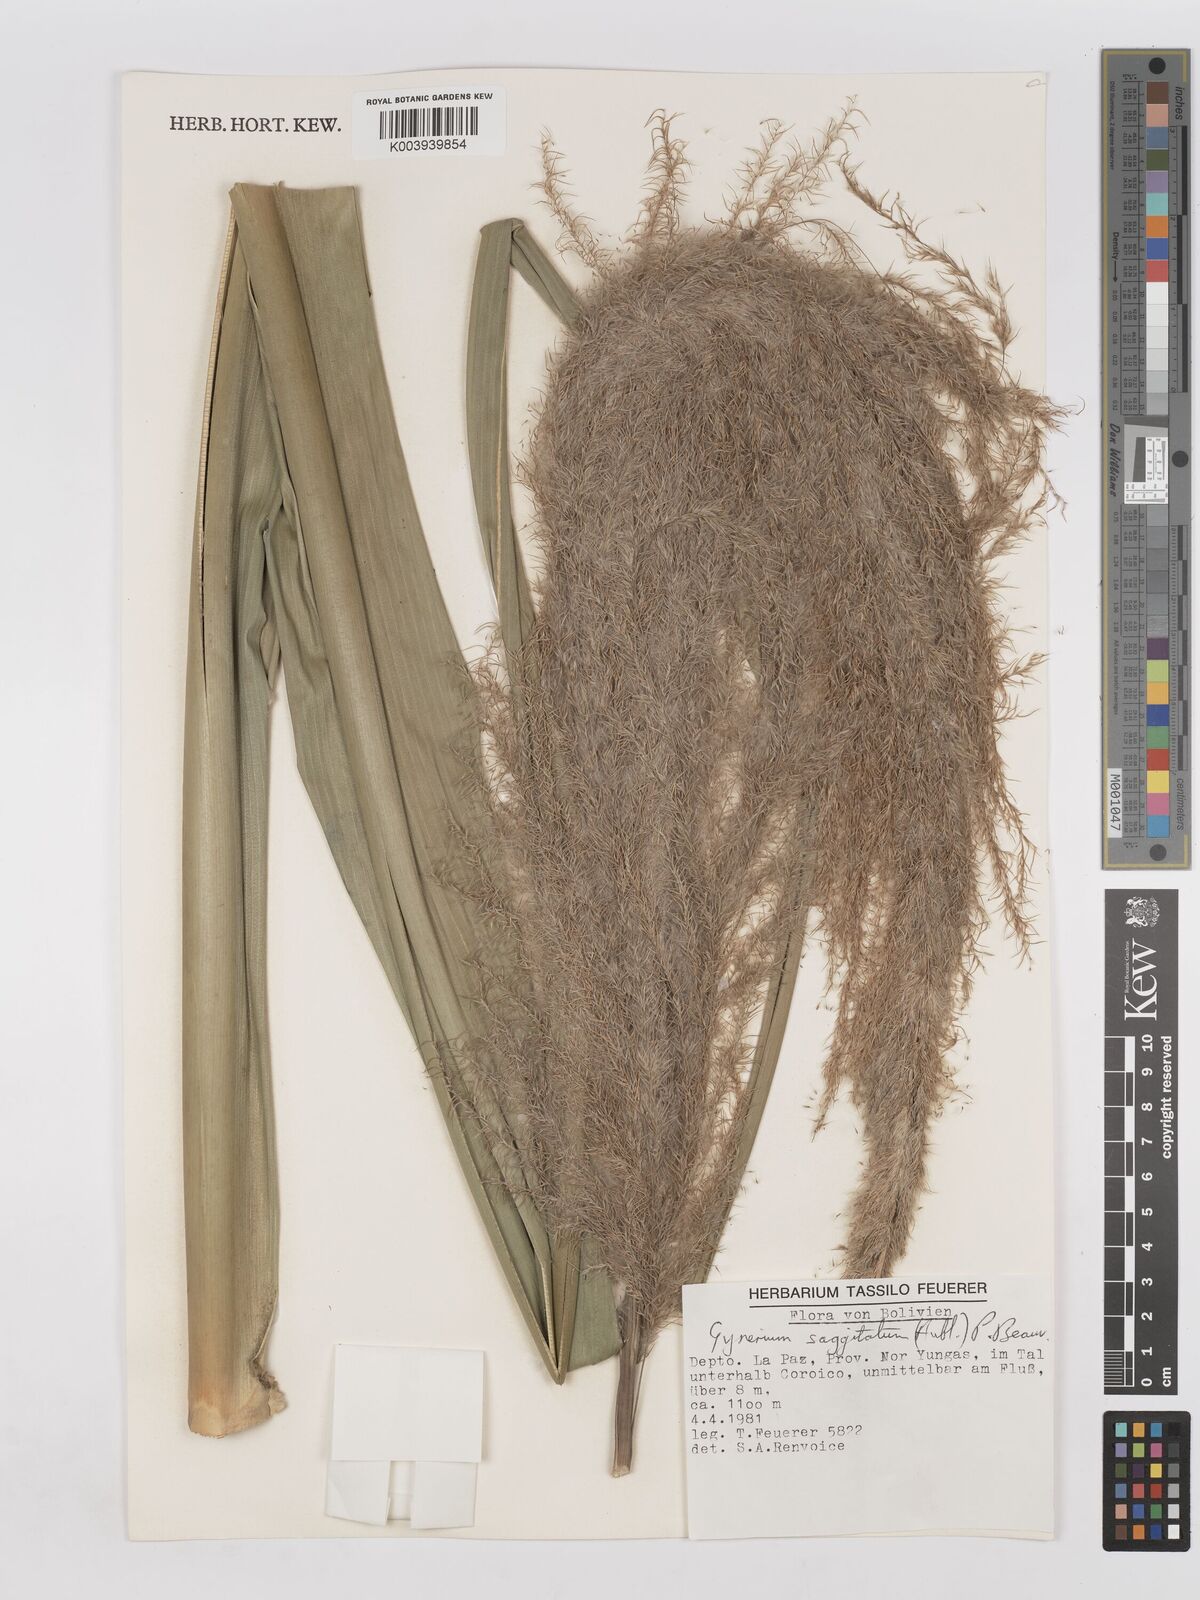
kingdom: Plantae
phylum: Tracheophyta
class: Liliopsida
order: Poales
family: Poaceae
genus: Gynerium
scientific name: Gynerium sagittatum
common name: Wild cane
